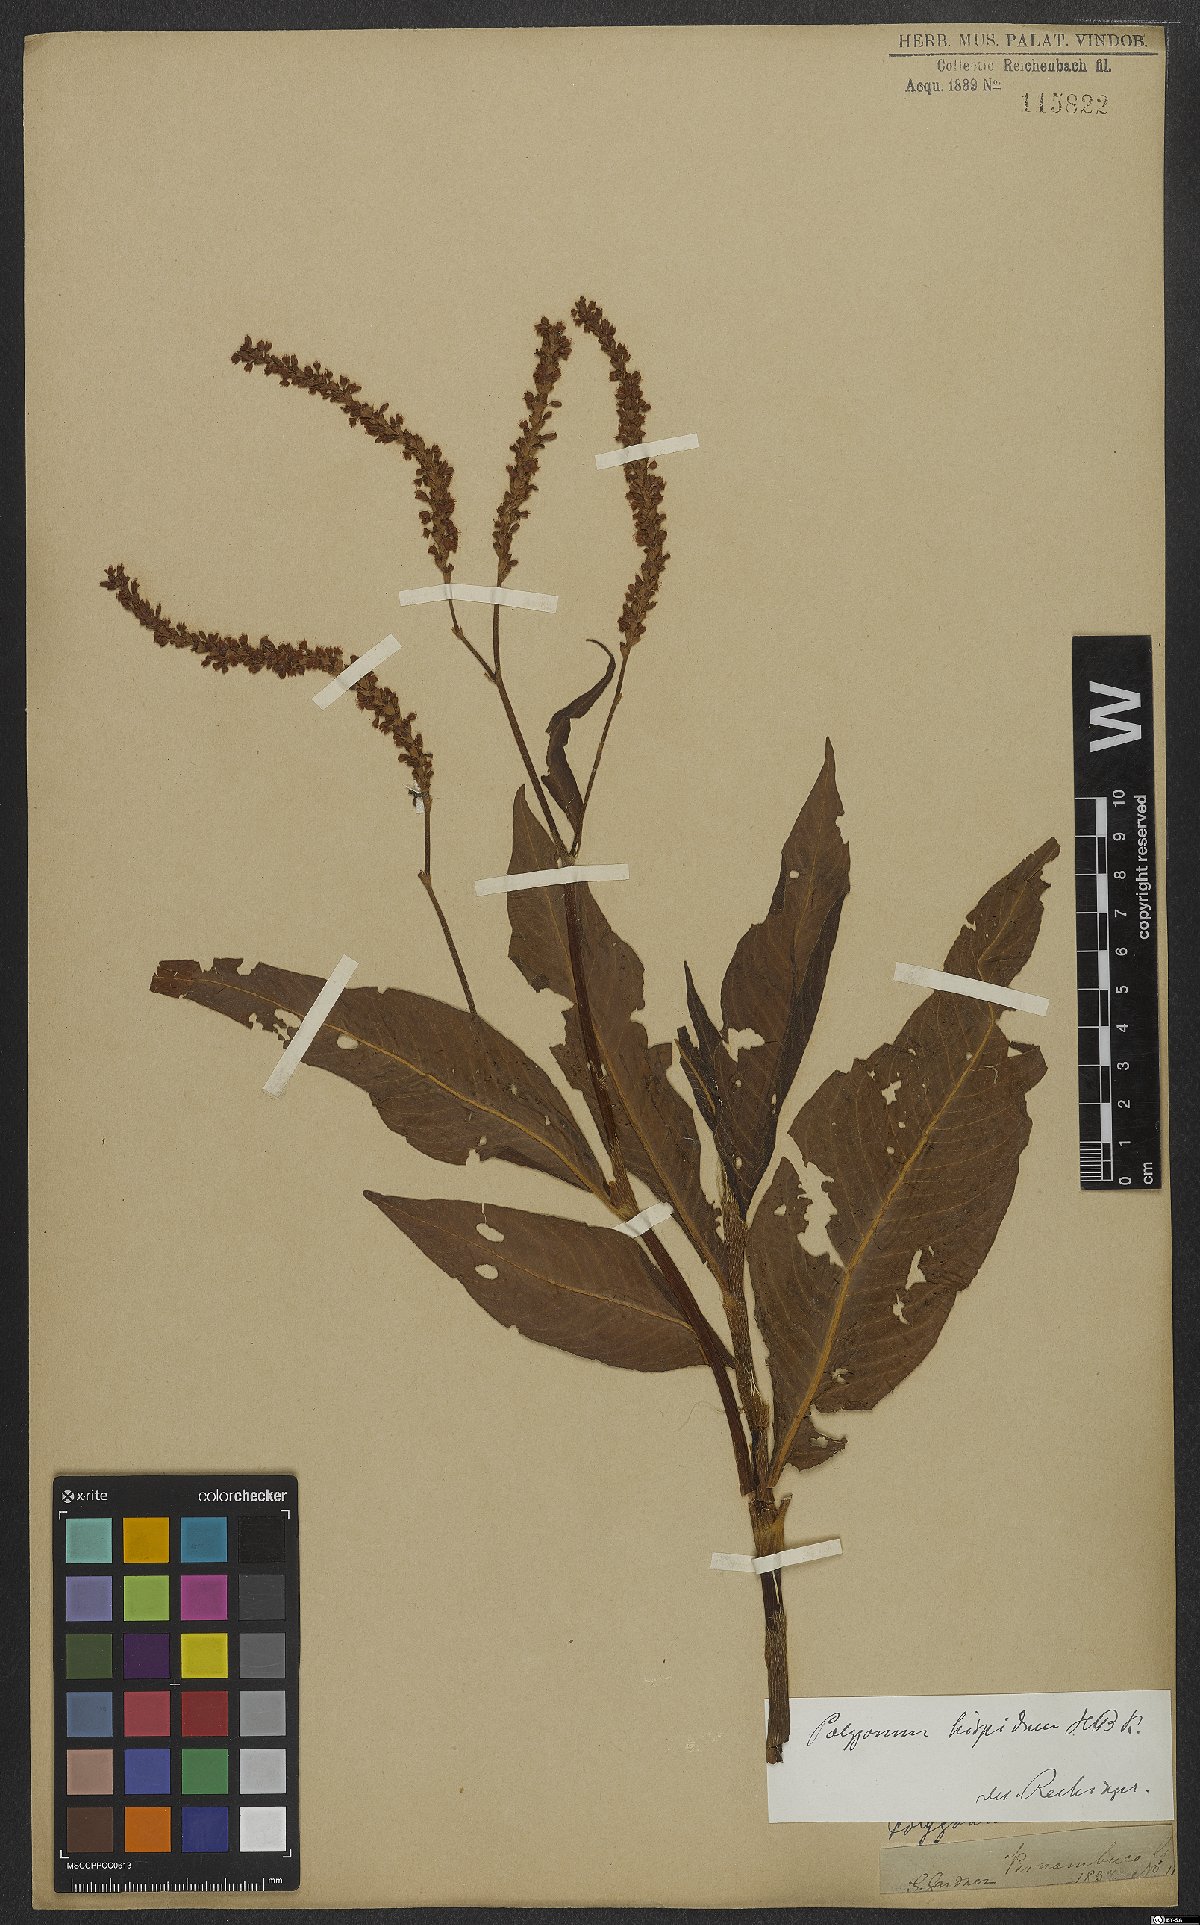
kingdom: Plantae
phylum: Tracheophyta
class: Magnoliopsida
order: Caryophyllales
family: Polygonaceae
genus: Persicaria
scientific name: Persicaria hispida
